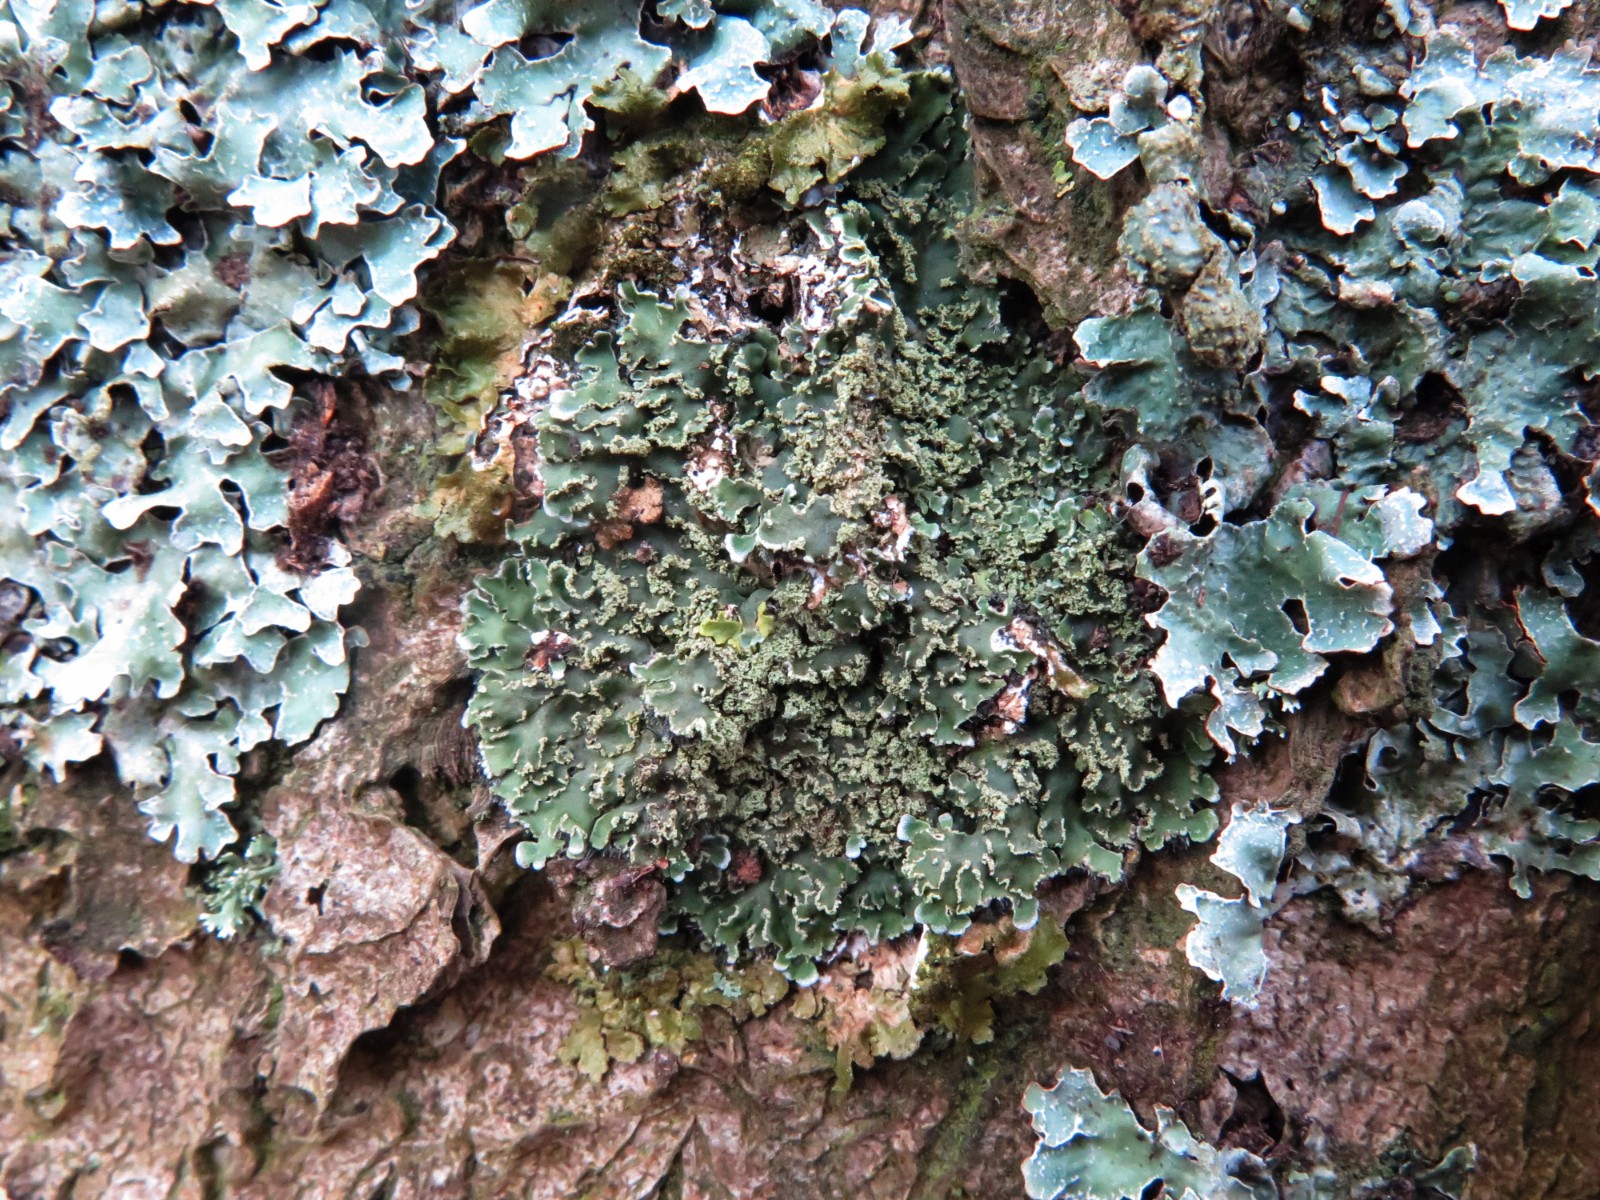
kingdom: Fungi
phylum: Ascomycota
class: Lecanoromycetes
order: Caliciales
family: Physciaceae
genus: Physconia
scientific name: Physconia perisidiosa
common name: liden dugrosetlav
